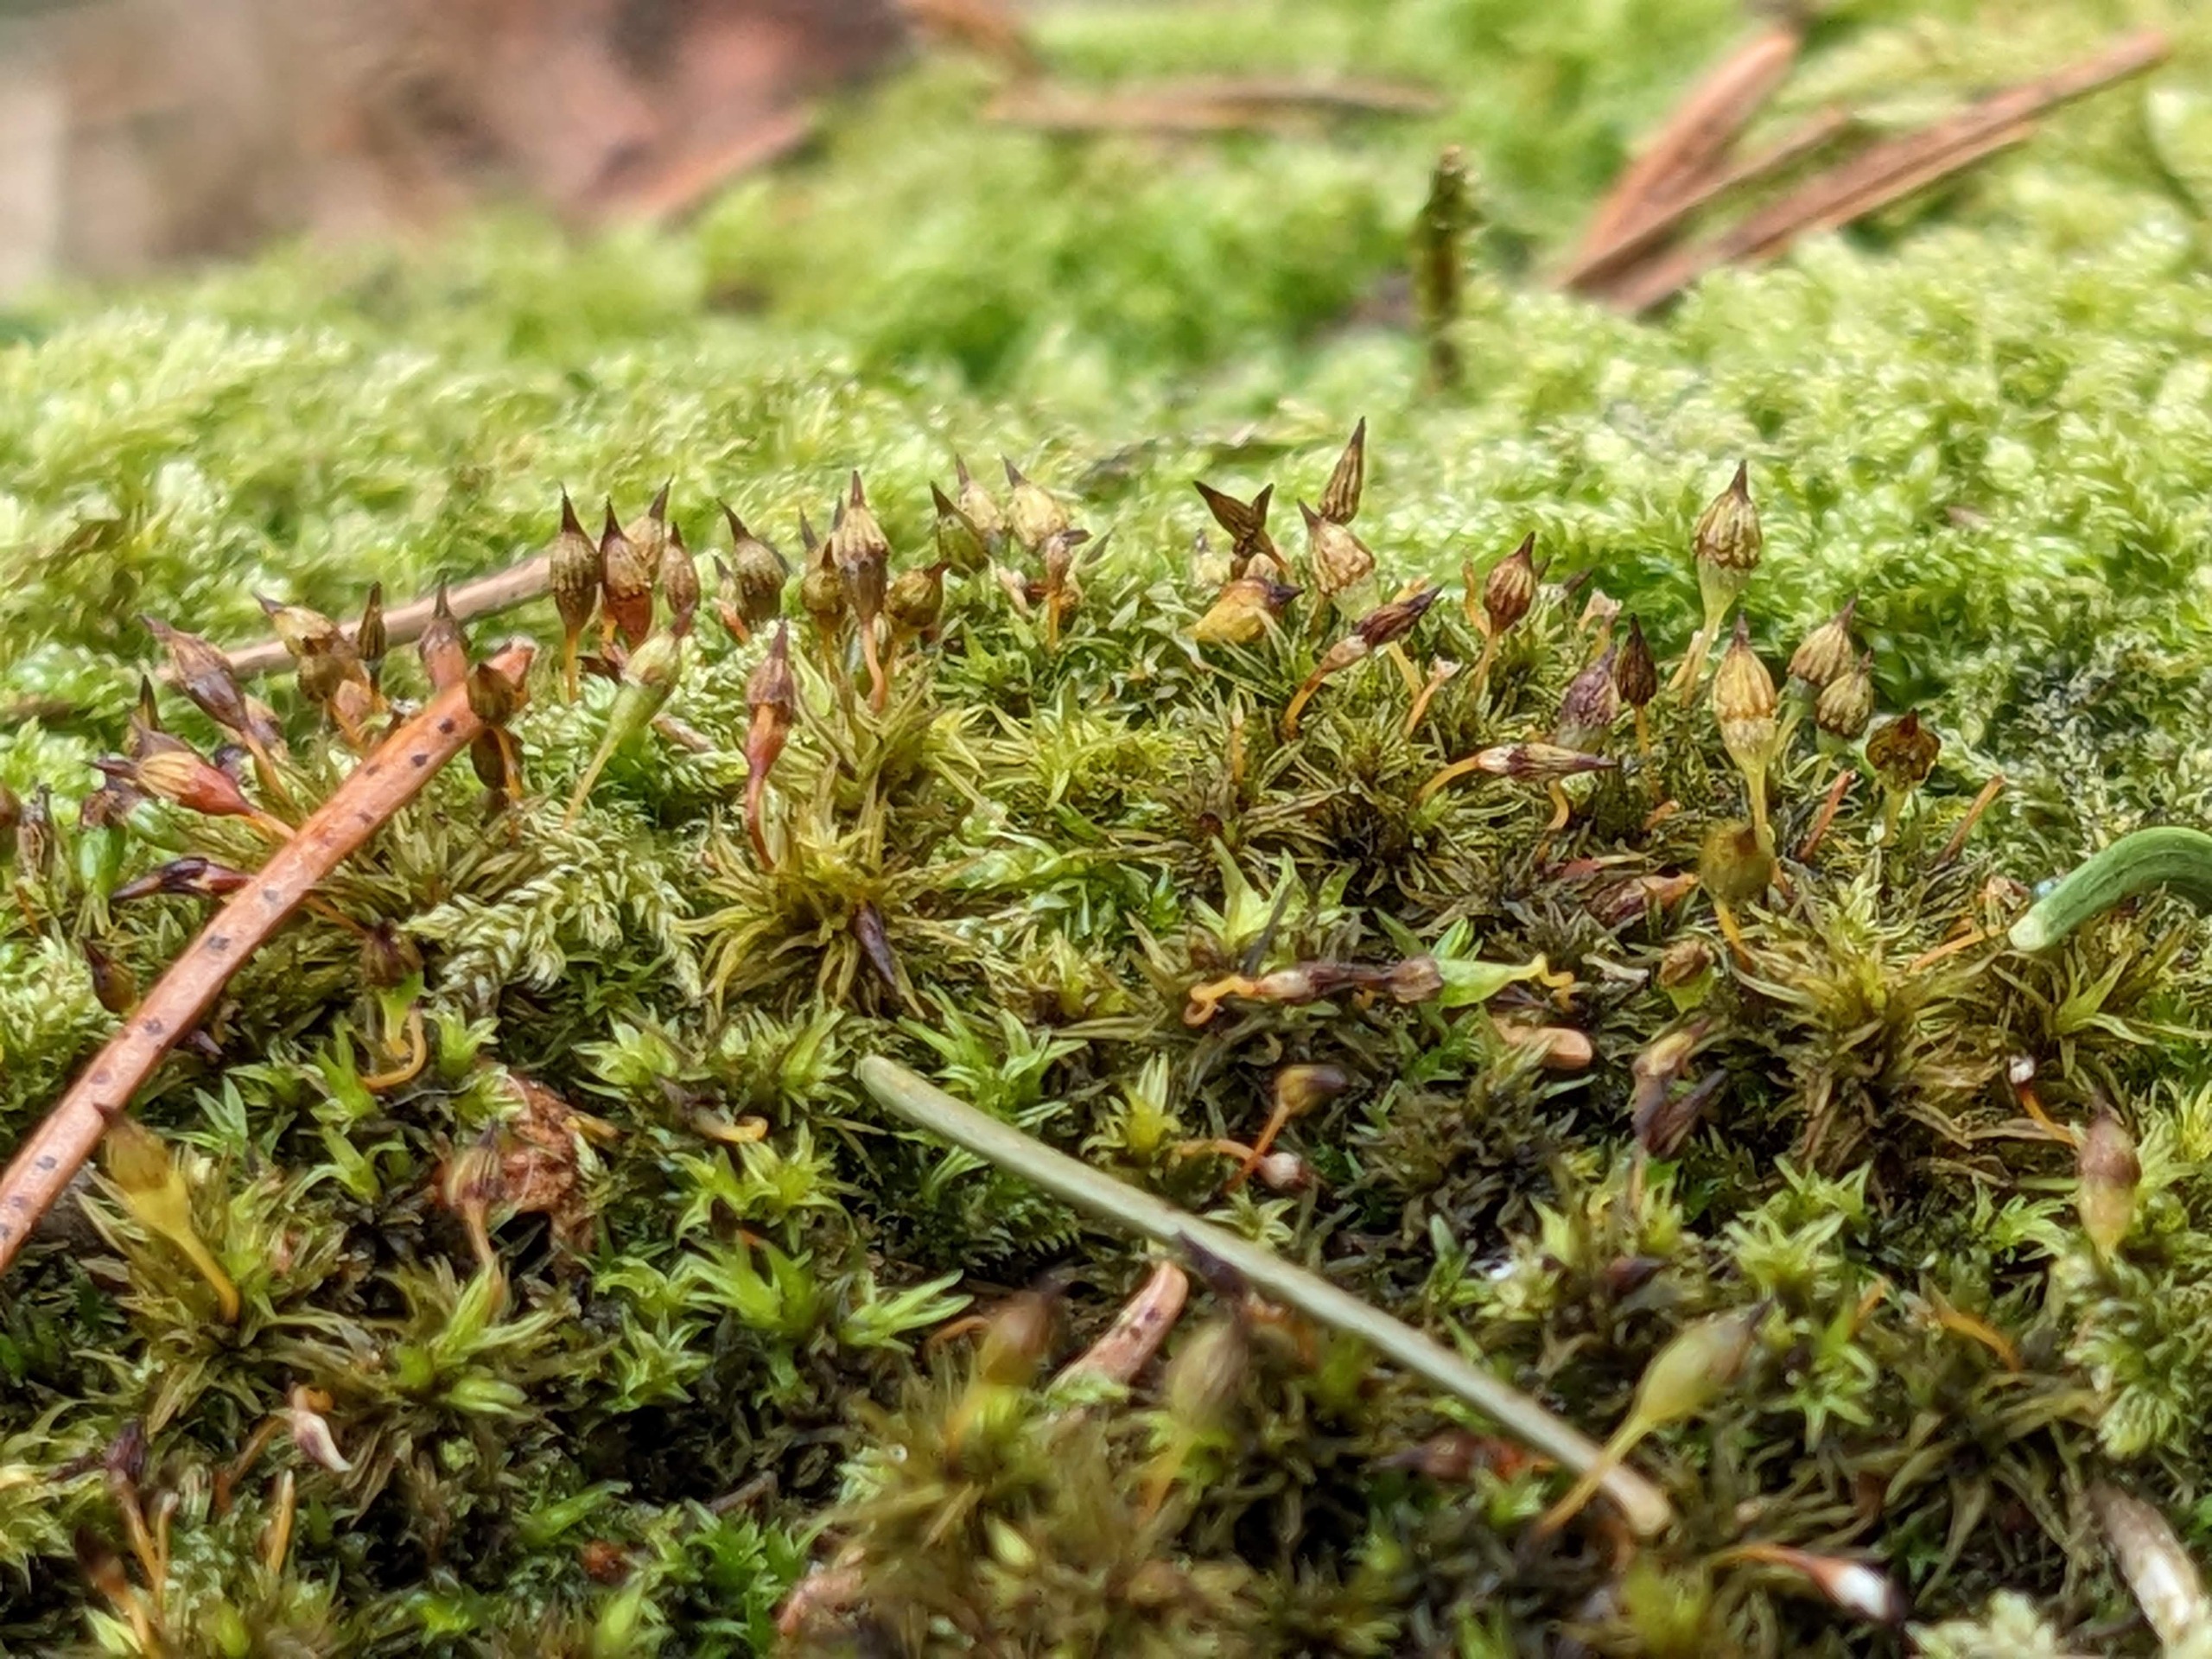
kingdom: Plantae
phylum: Bryophyta
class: Bryopsida
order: Orthotrichales
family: Orthotrichaceae
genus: Orthotrichum
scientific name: Orthotrichum pulchellum
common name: Smuk furehætte
